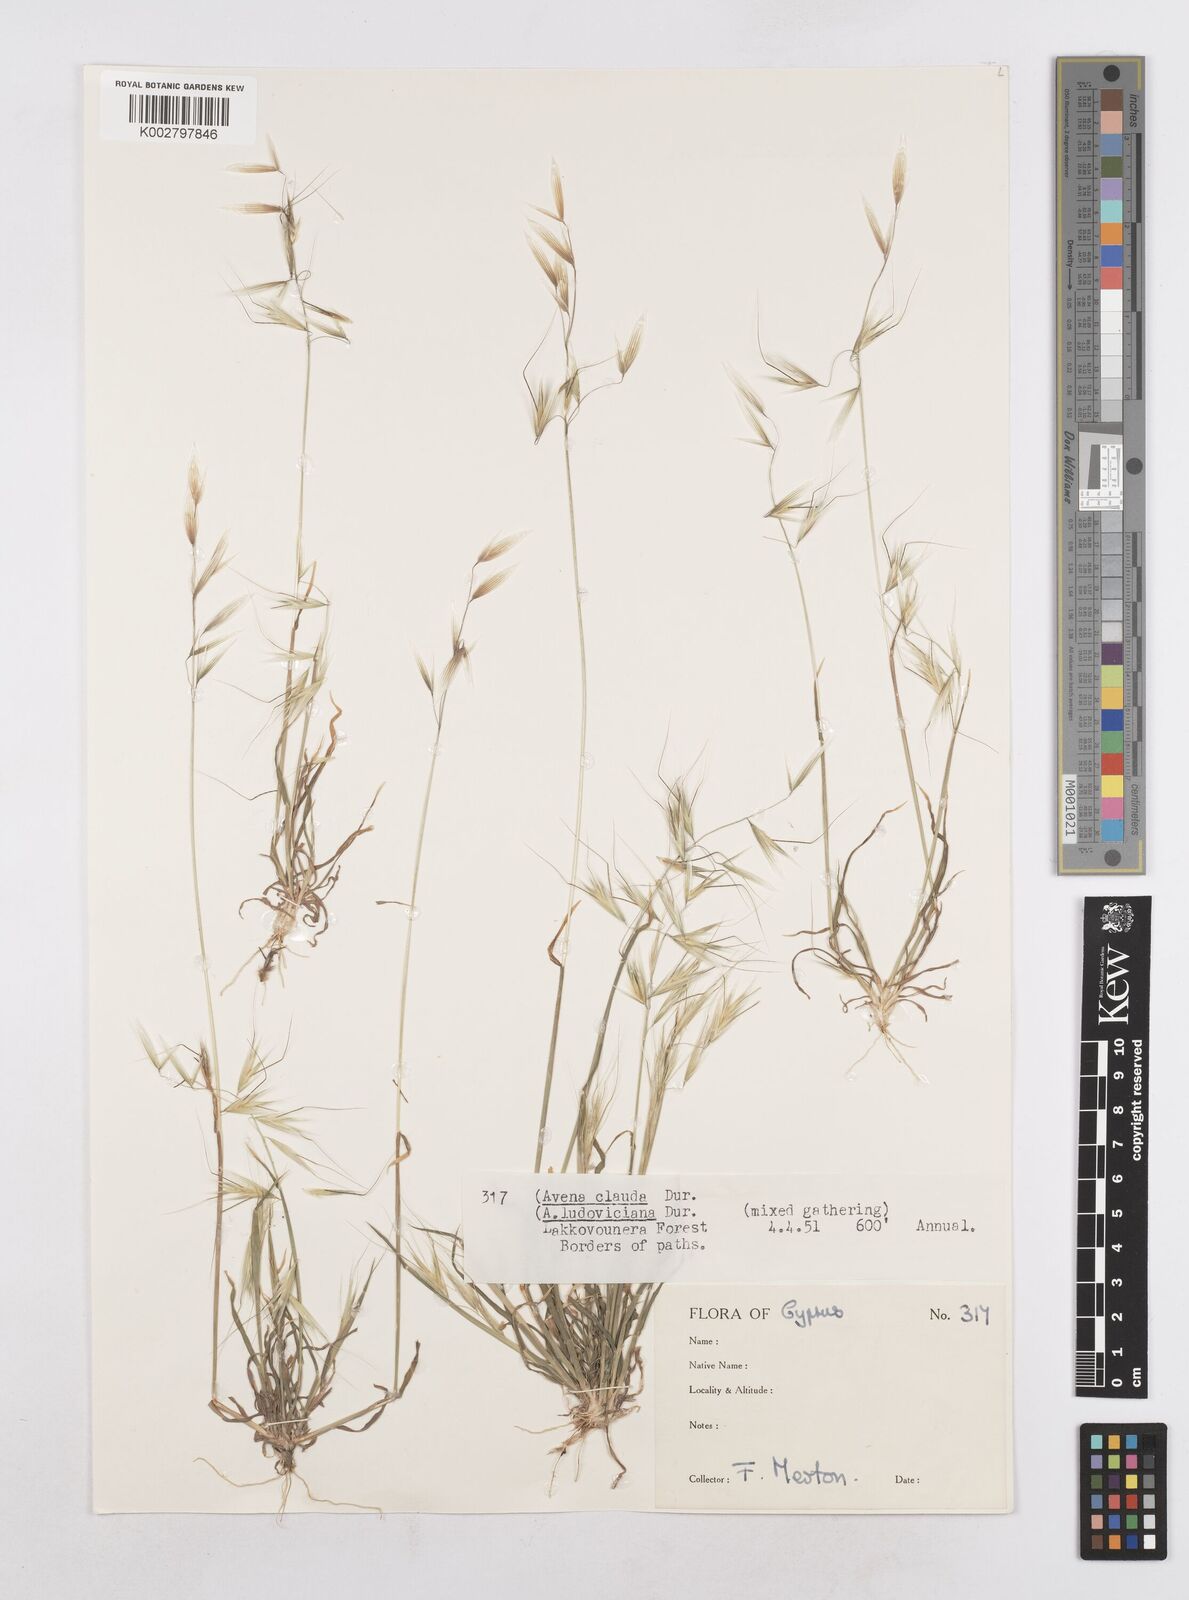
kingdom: Plantae
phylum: Tracheophyta
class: Liliopsida
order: Poales
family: Poaceae
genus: Avena
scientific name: Avena clauda
